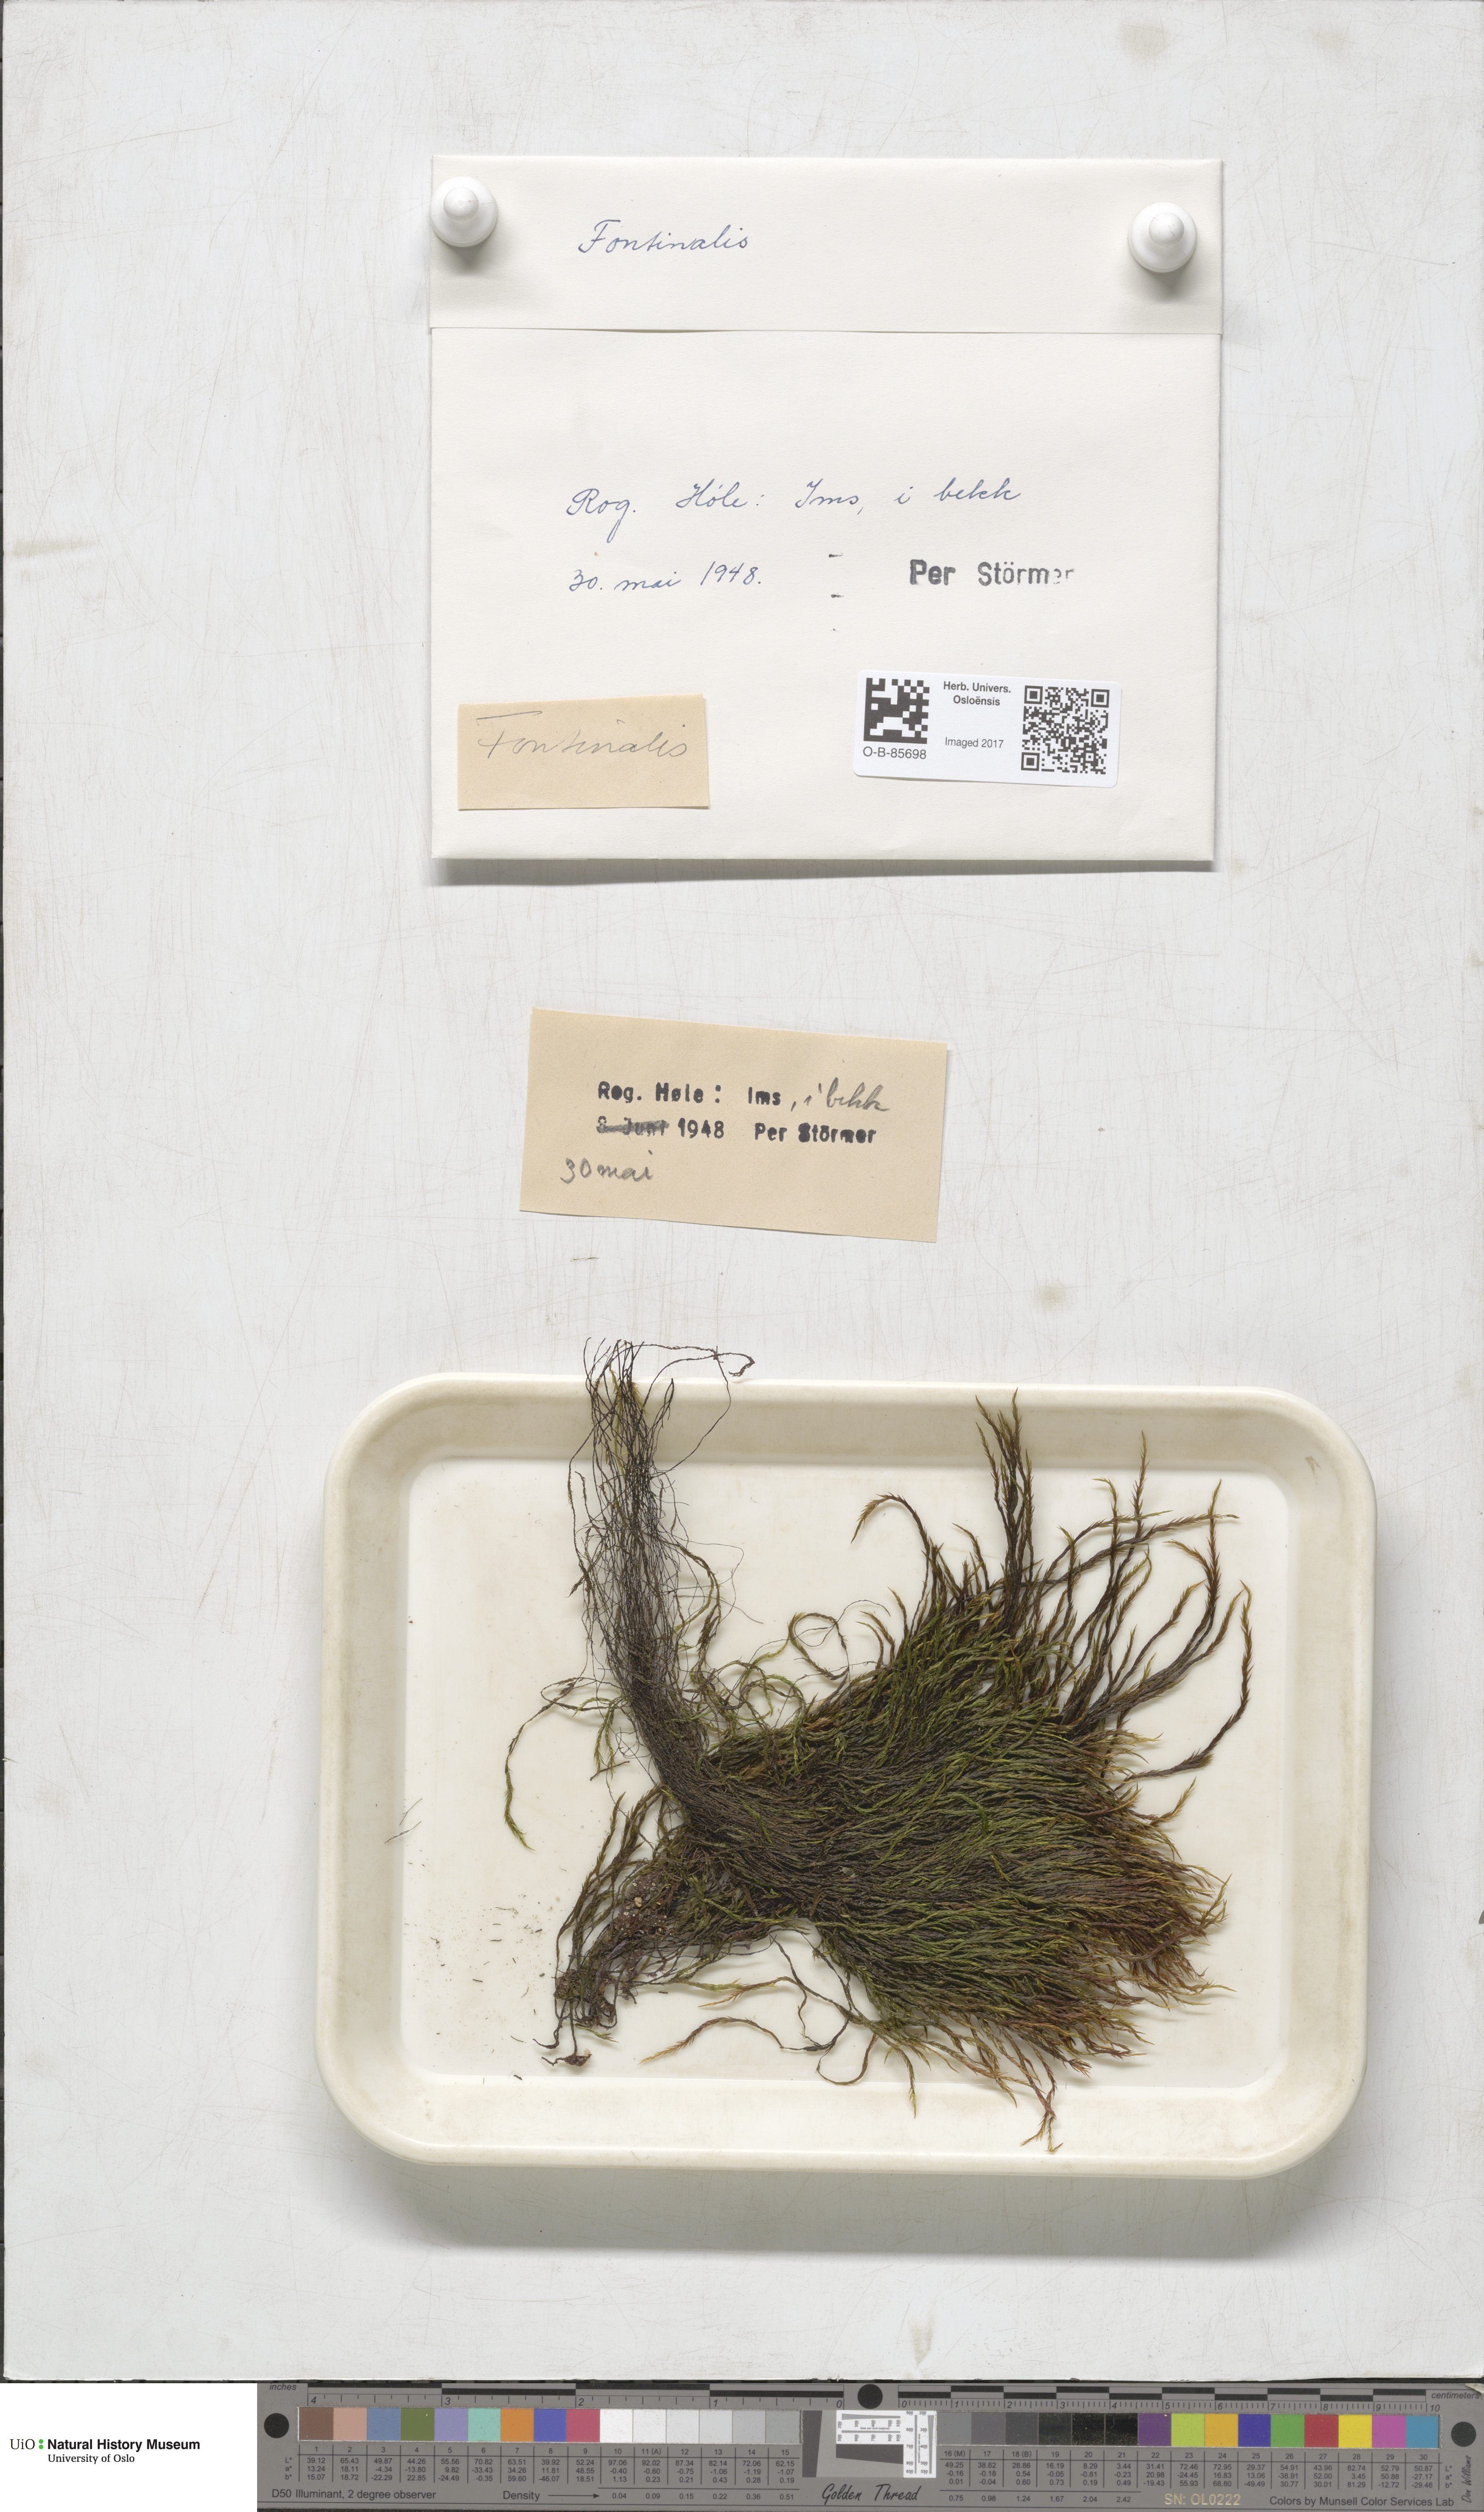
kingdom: Plantae
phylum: Bryophyta
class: Bryopsida
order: Hypnales
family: Fontinalaceae
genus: Fontinalis
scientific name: Fontinalis
